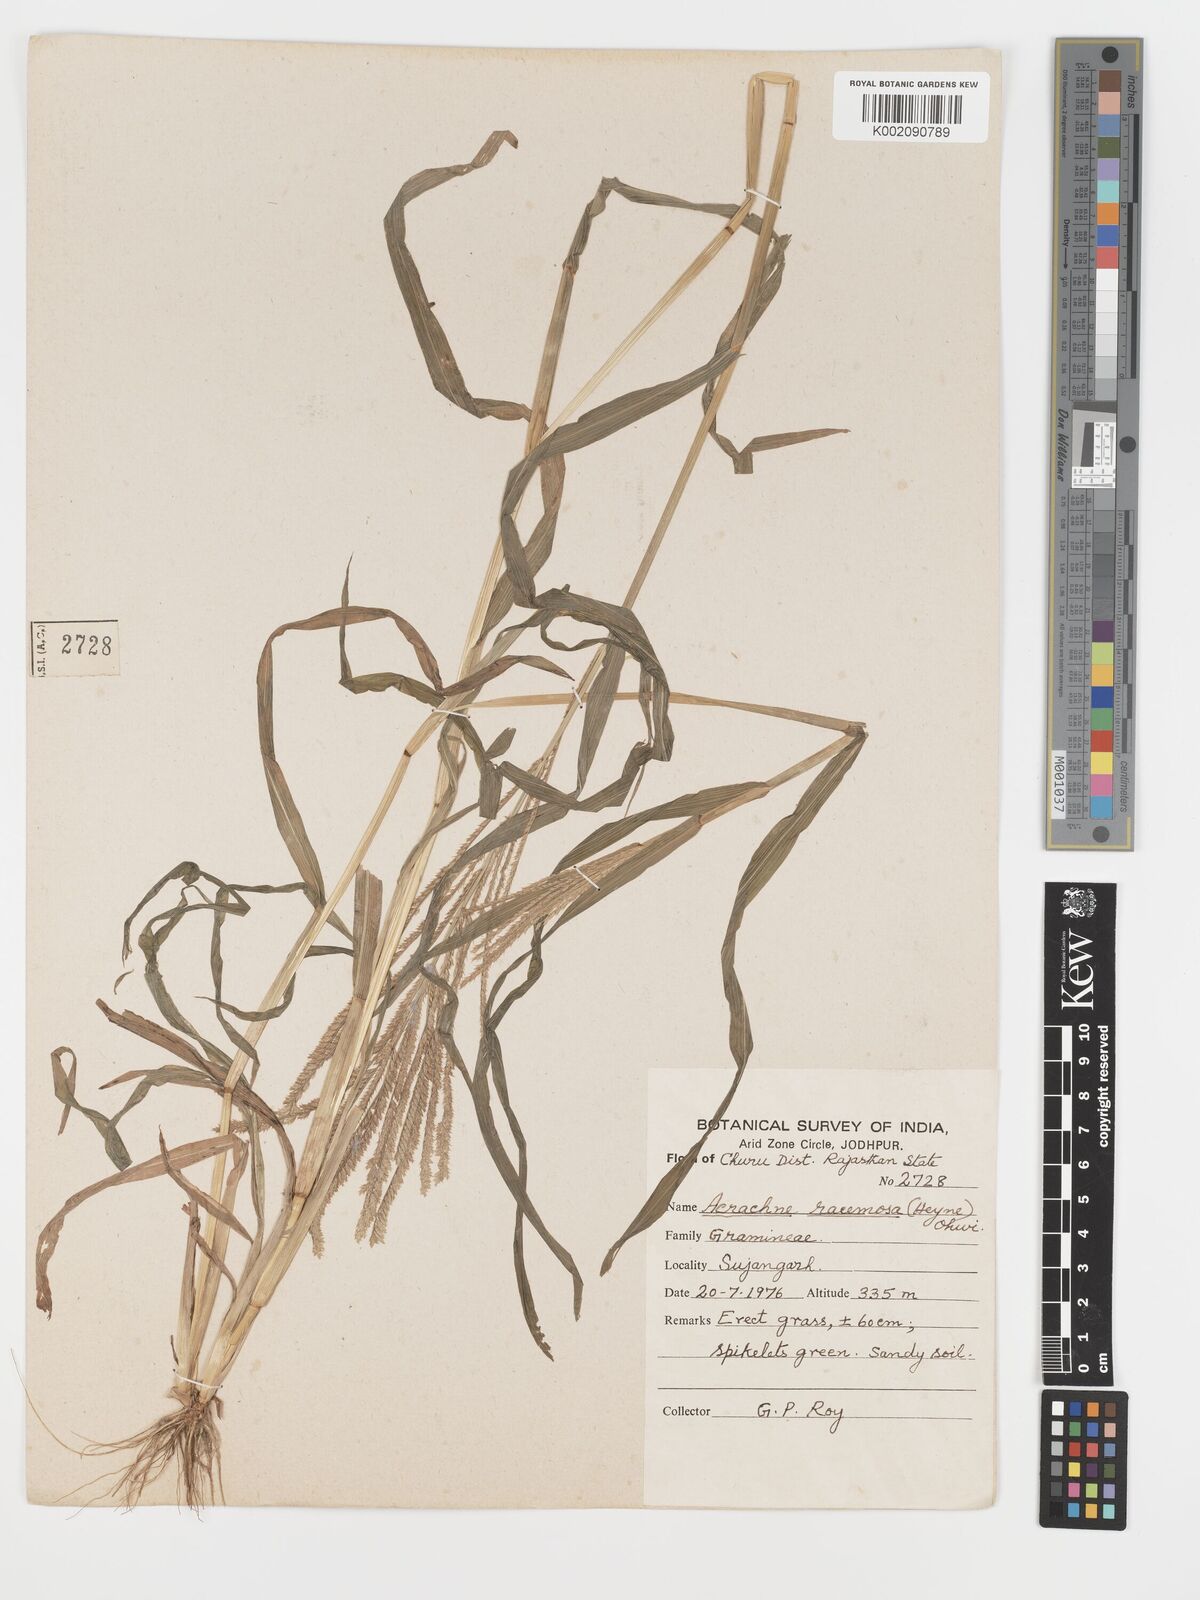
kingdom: Plantae
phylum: Tracheophyta
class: Liliopsida
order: Poales
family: Poaceae
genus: Acrachne
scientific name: Acrachne racemosa
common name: Goosegrass
